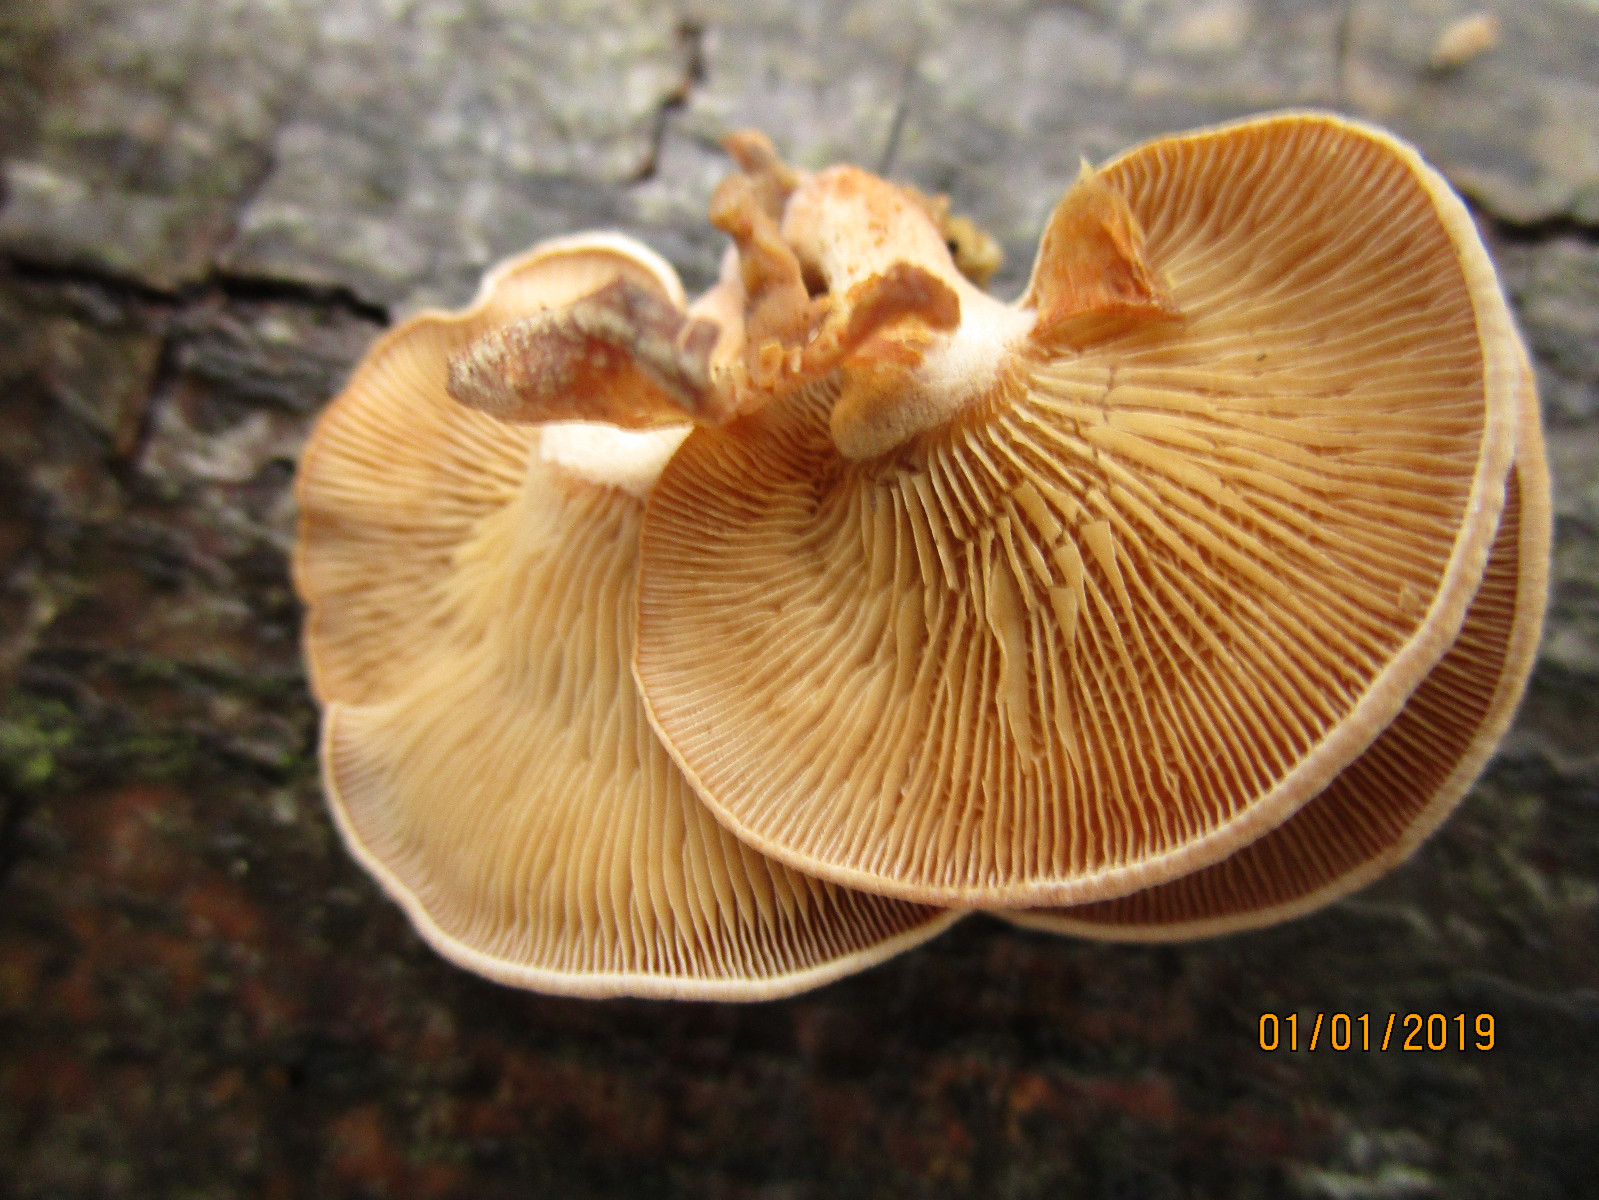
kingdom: Fungi
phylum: Basidiomycota
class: Agaricomycetes
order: Agaricales
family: Mycenaceae
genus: Panellus
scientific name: Panellus stipticus
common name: kliddet epaulethat
